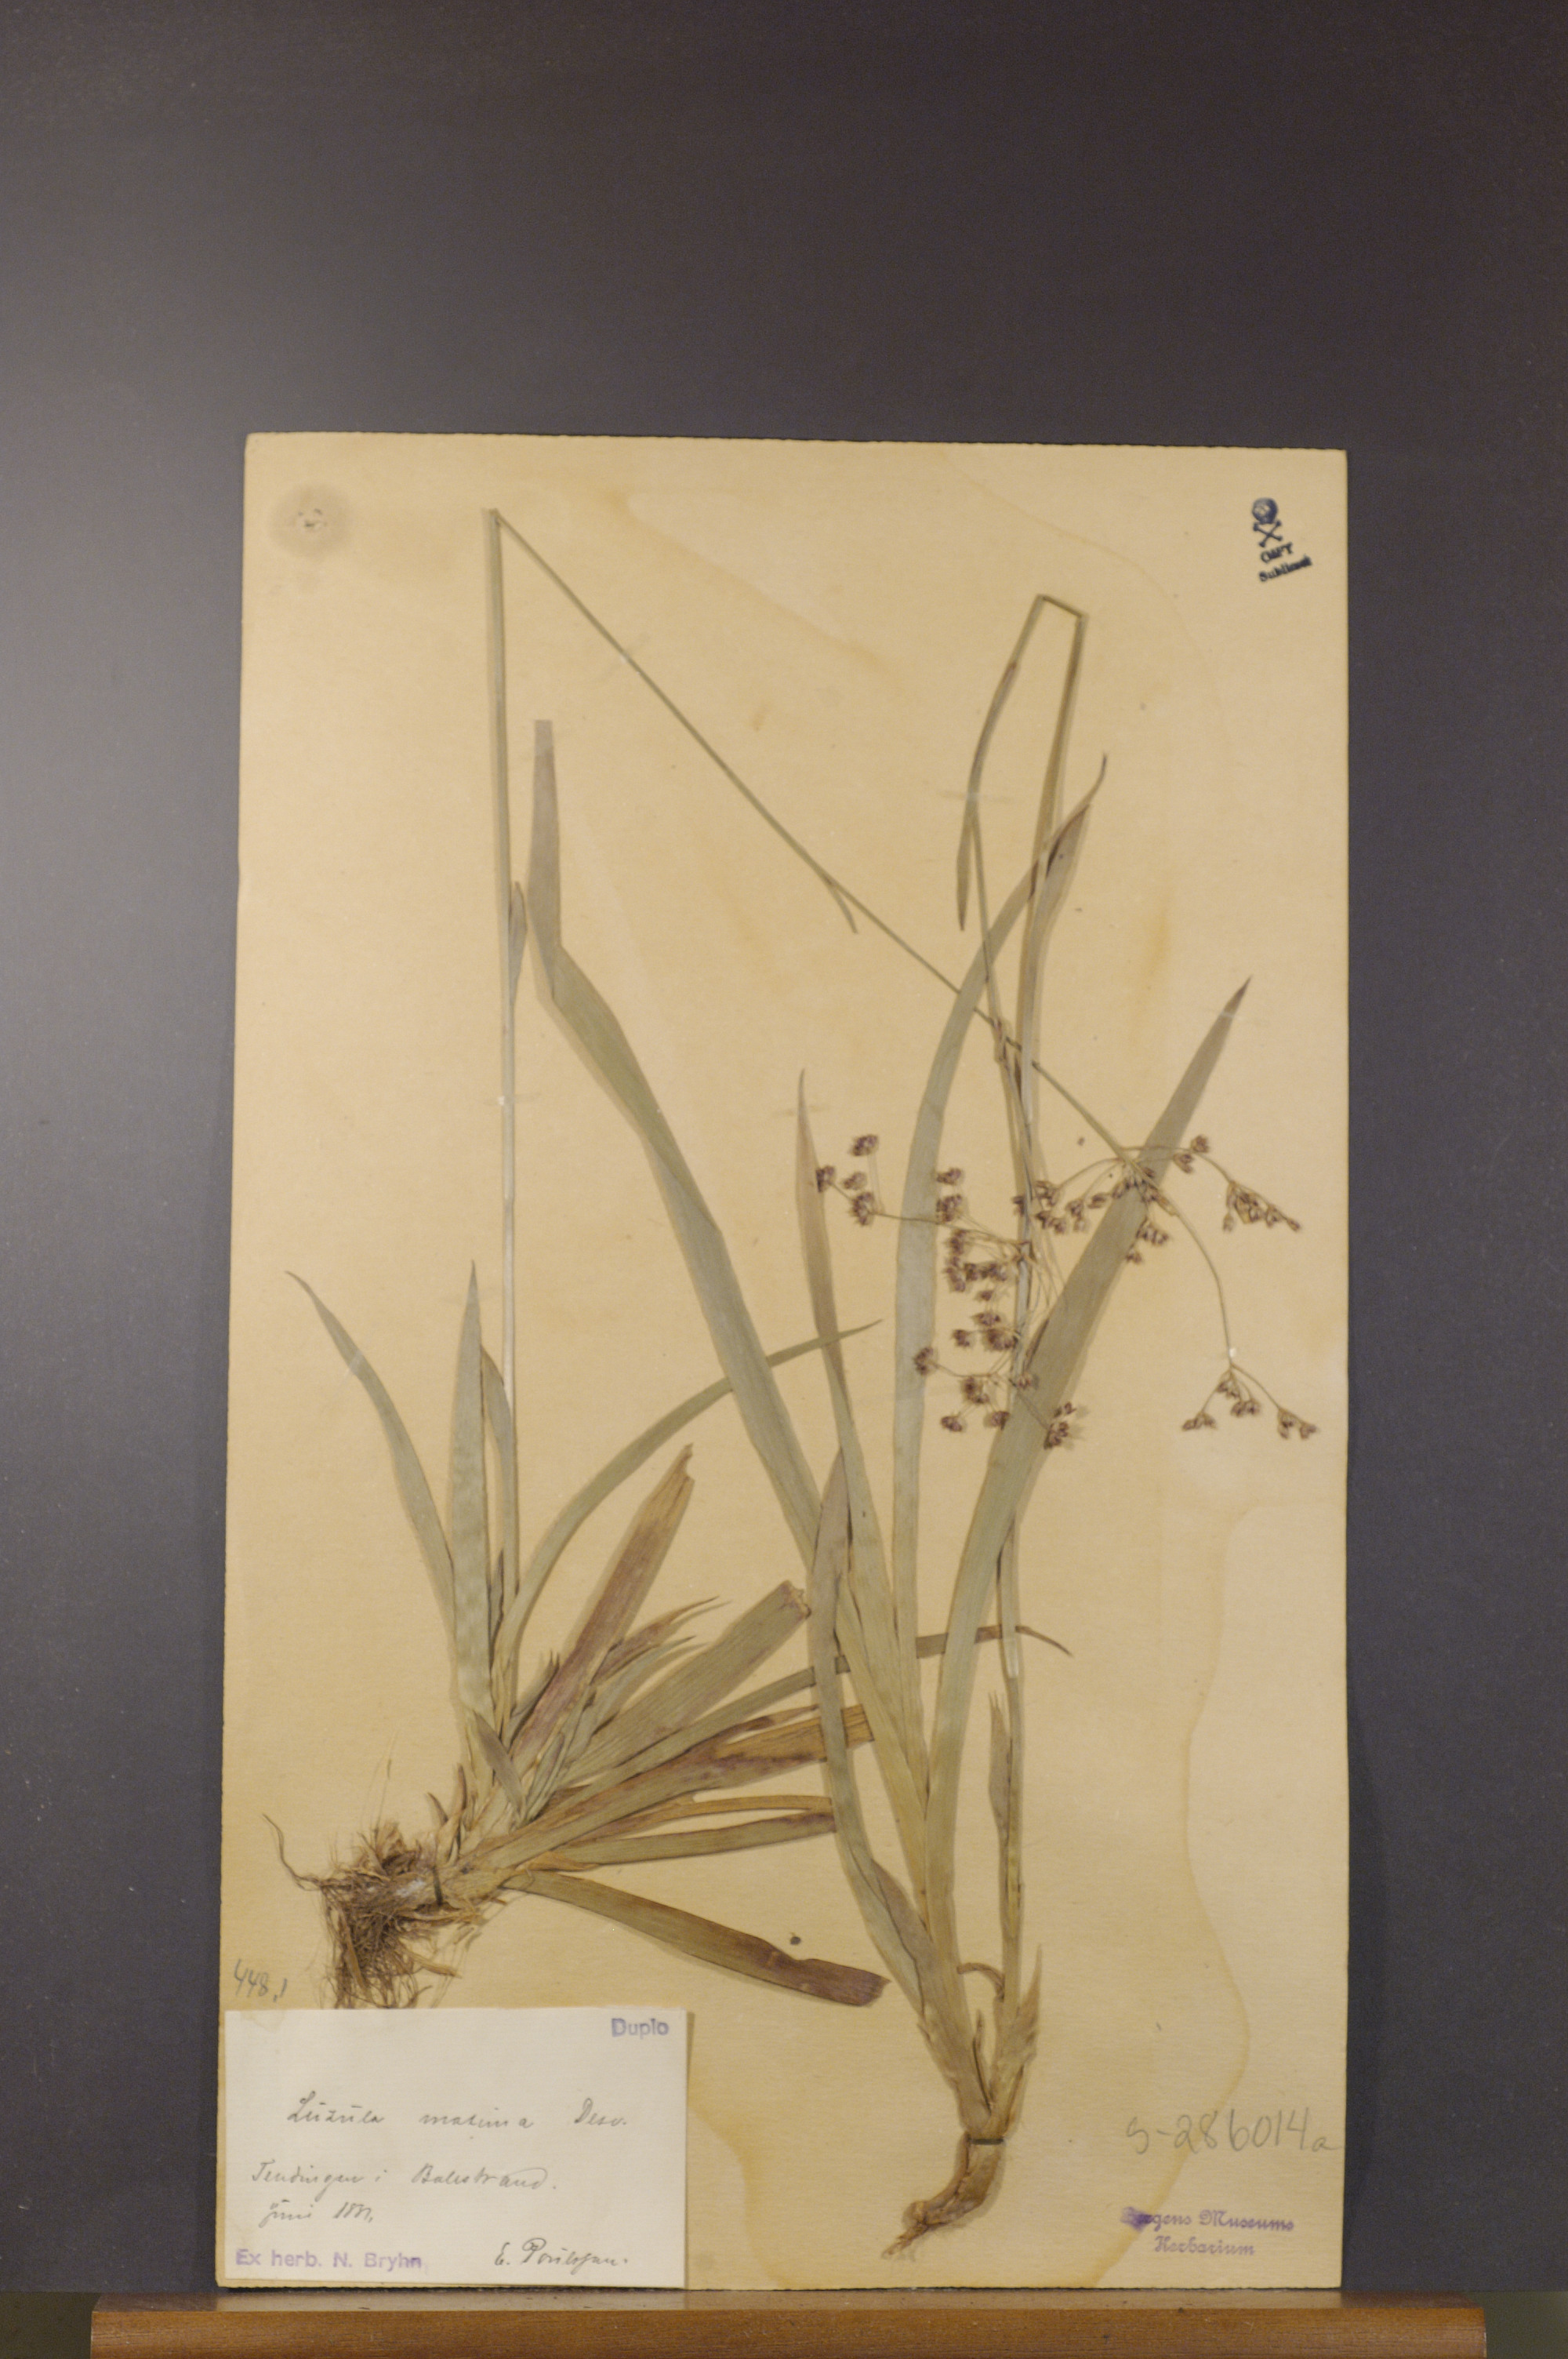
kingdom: Plantae
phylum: Tracheophyta
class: Liliopsida
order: Poales
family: Juncaceae
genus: Luzula
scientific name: Luzula sylvatica
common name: Great wood-rush
